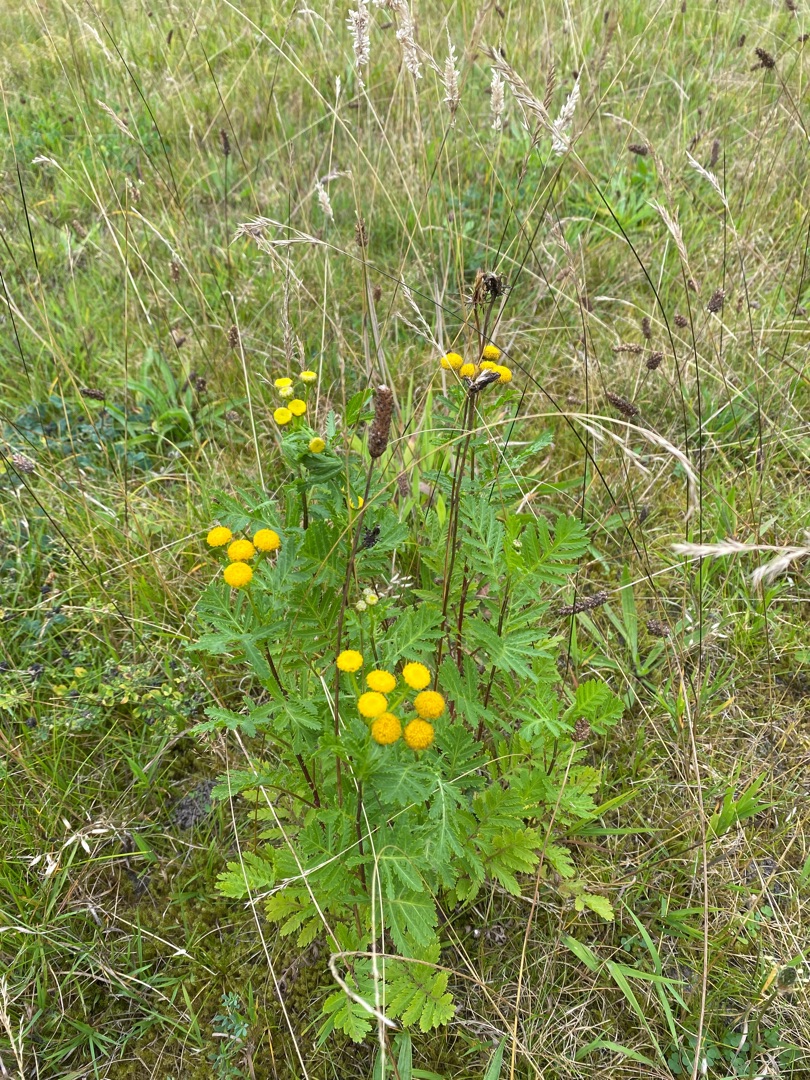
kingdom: Plantae
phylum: Tracheophyta
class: Magnoliopsida
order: Asterales
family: Asteraceae
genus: Tanacetum
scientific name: Tanacetum vulgare
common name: Rejnfan
